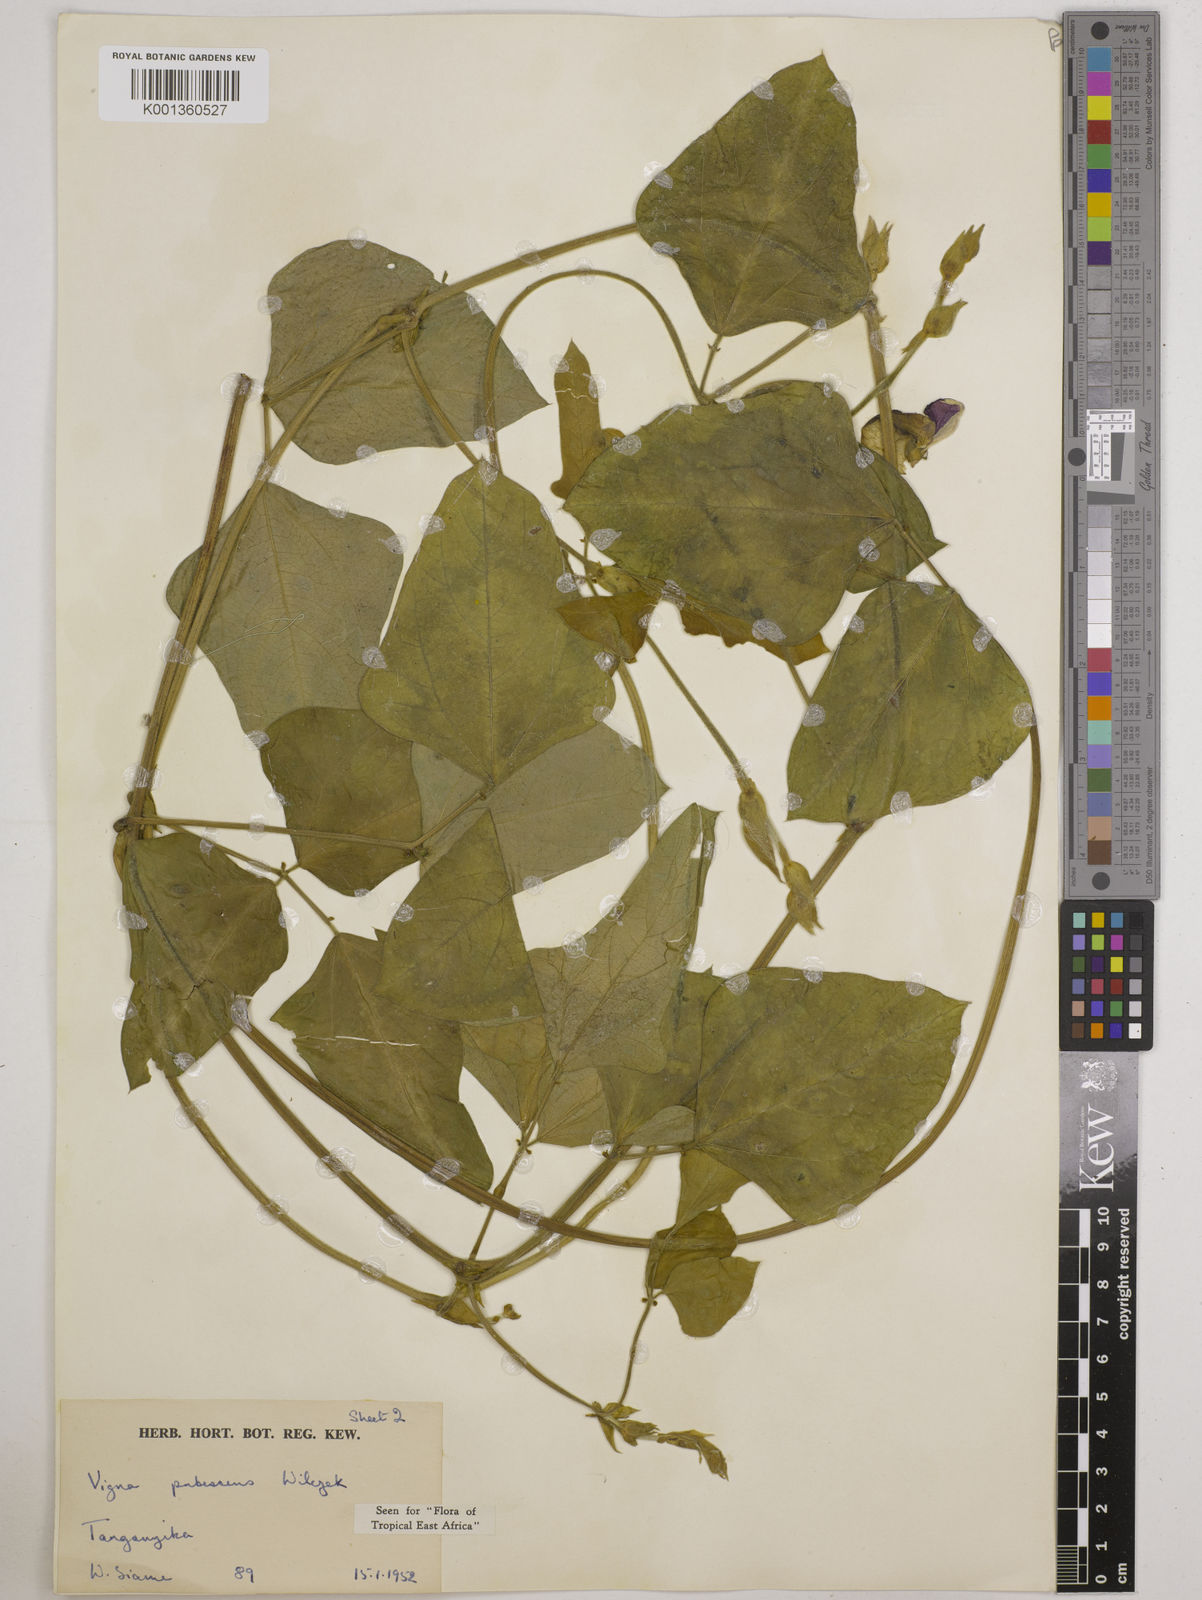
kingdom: Plantae
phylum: Tracheophyta
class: Magnoliopsida
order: Fabales
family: Fabaceae
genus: Vigna
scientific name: Vigna unguiculata
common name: Cowpea
